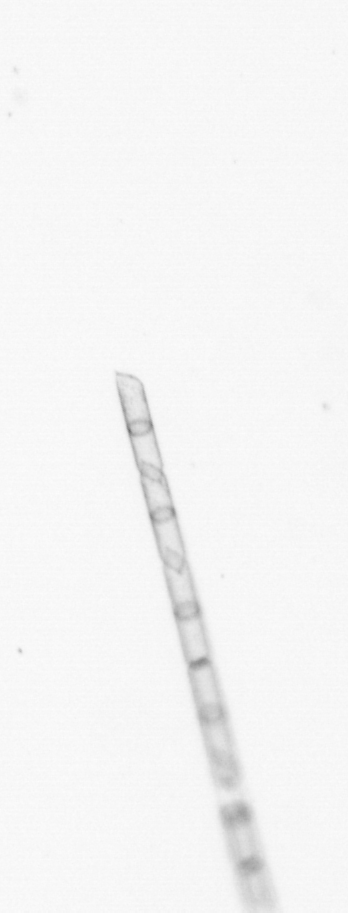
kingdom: Chromista
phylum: Ochrophyta
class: Bacillariophyceae
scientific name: Bacillariophyceae
